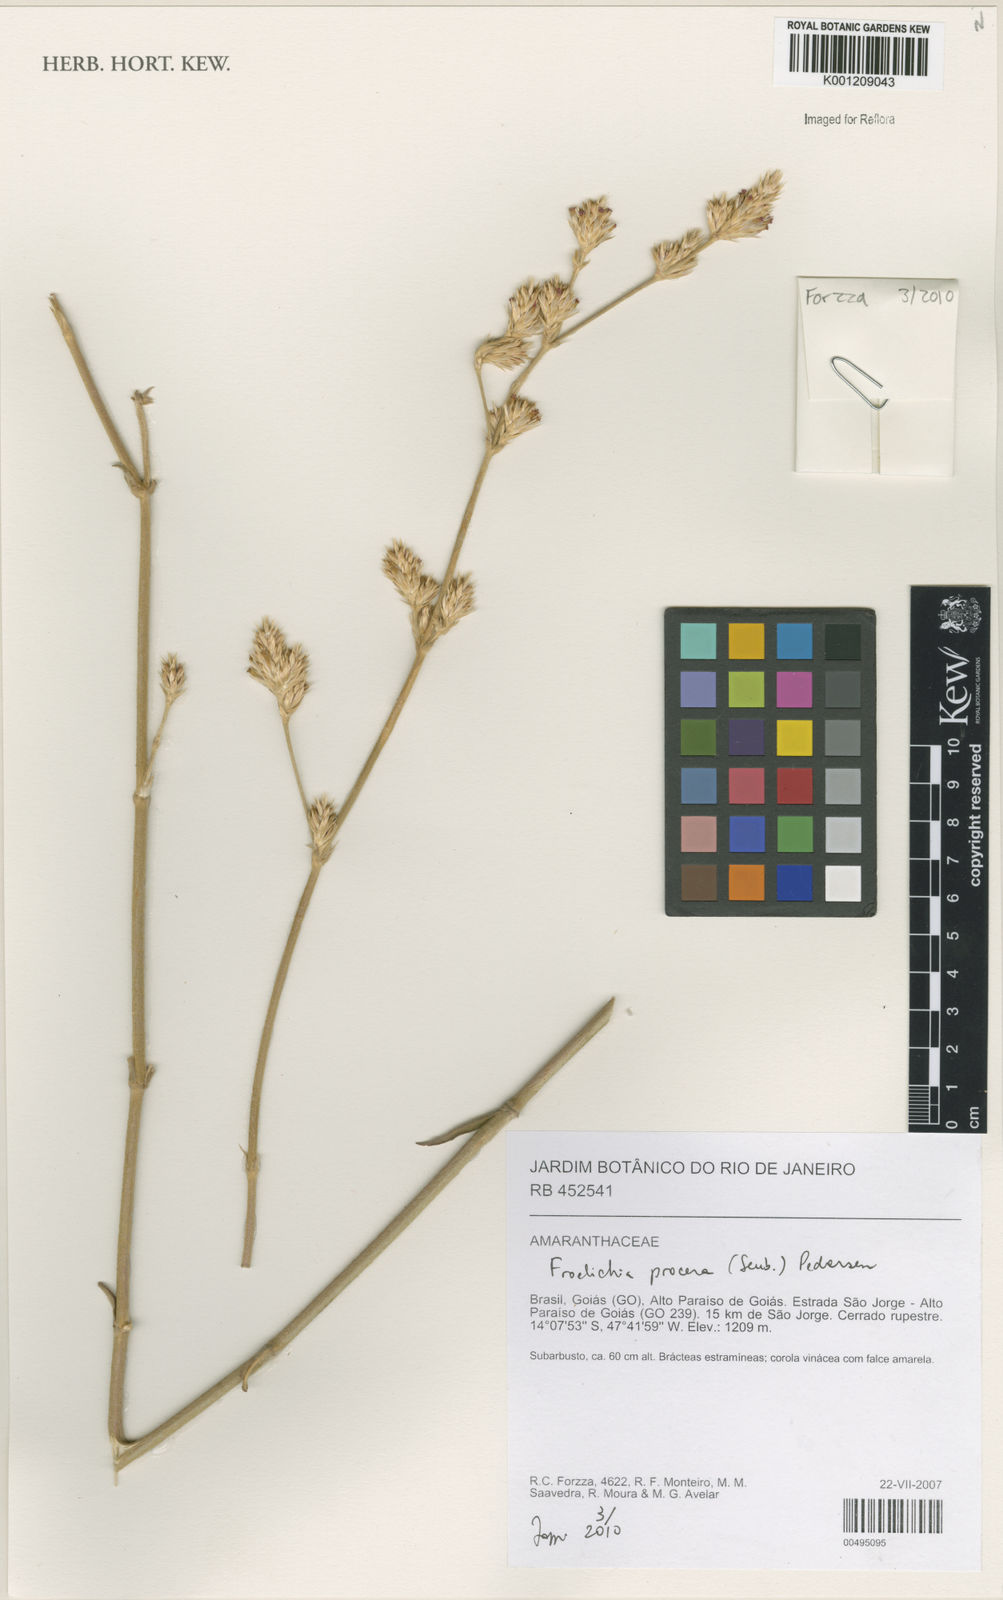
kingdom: Plantae
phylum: Tracheophyta
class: Magnoliopsida
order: Caryophyllales
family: Amaranthaceae
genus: Froelichia
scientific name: Froelichia procera
